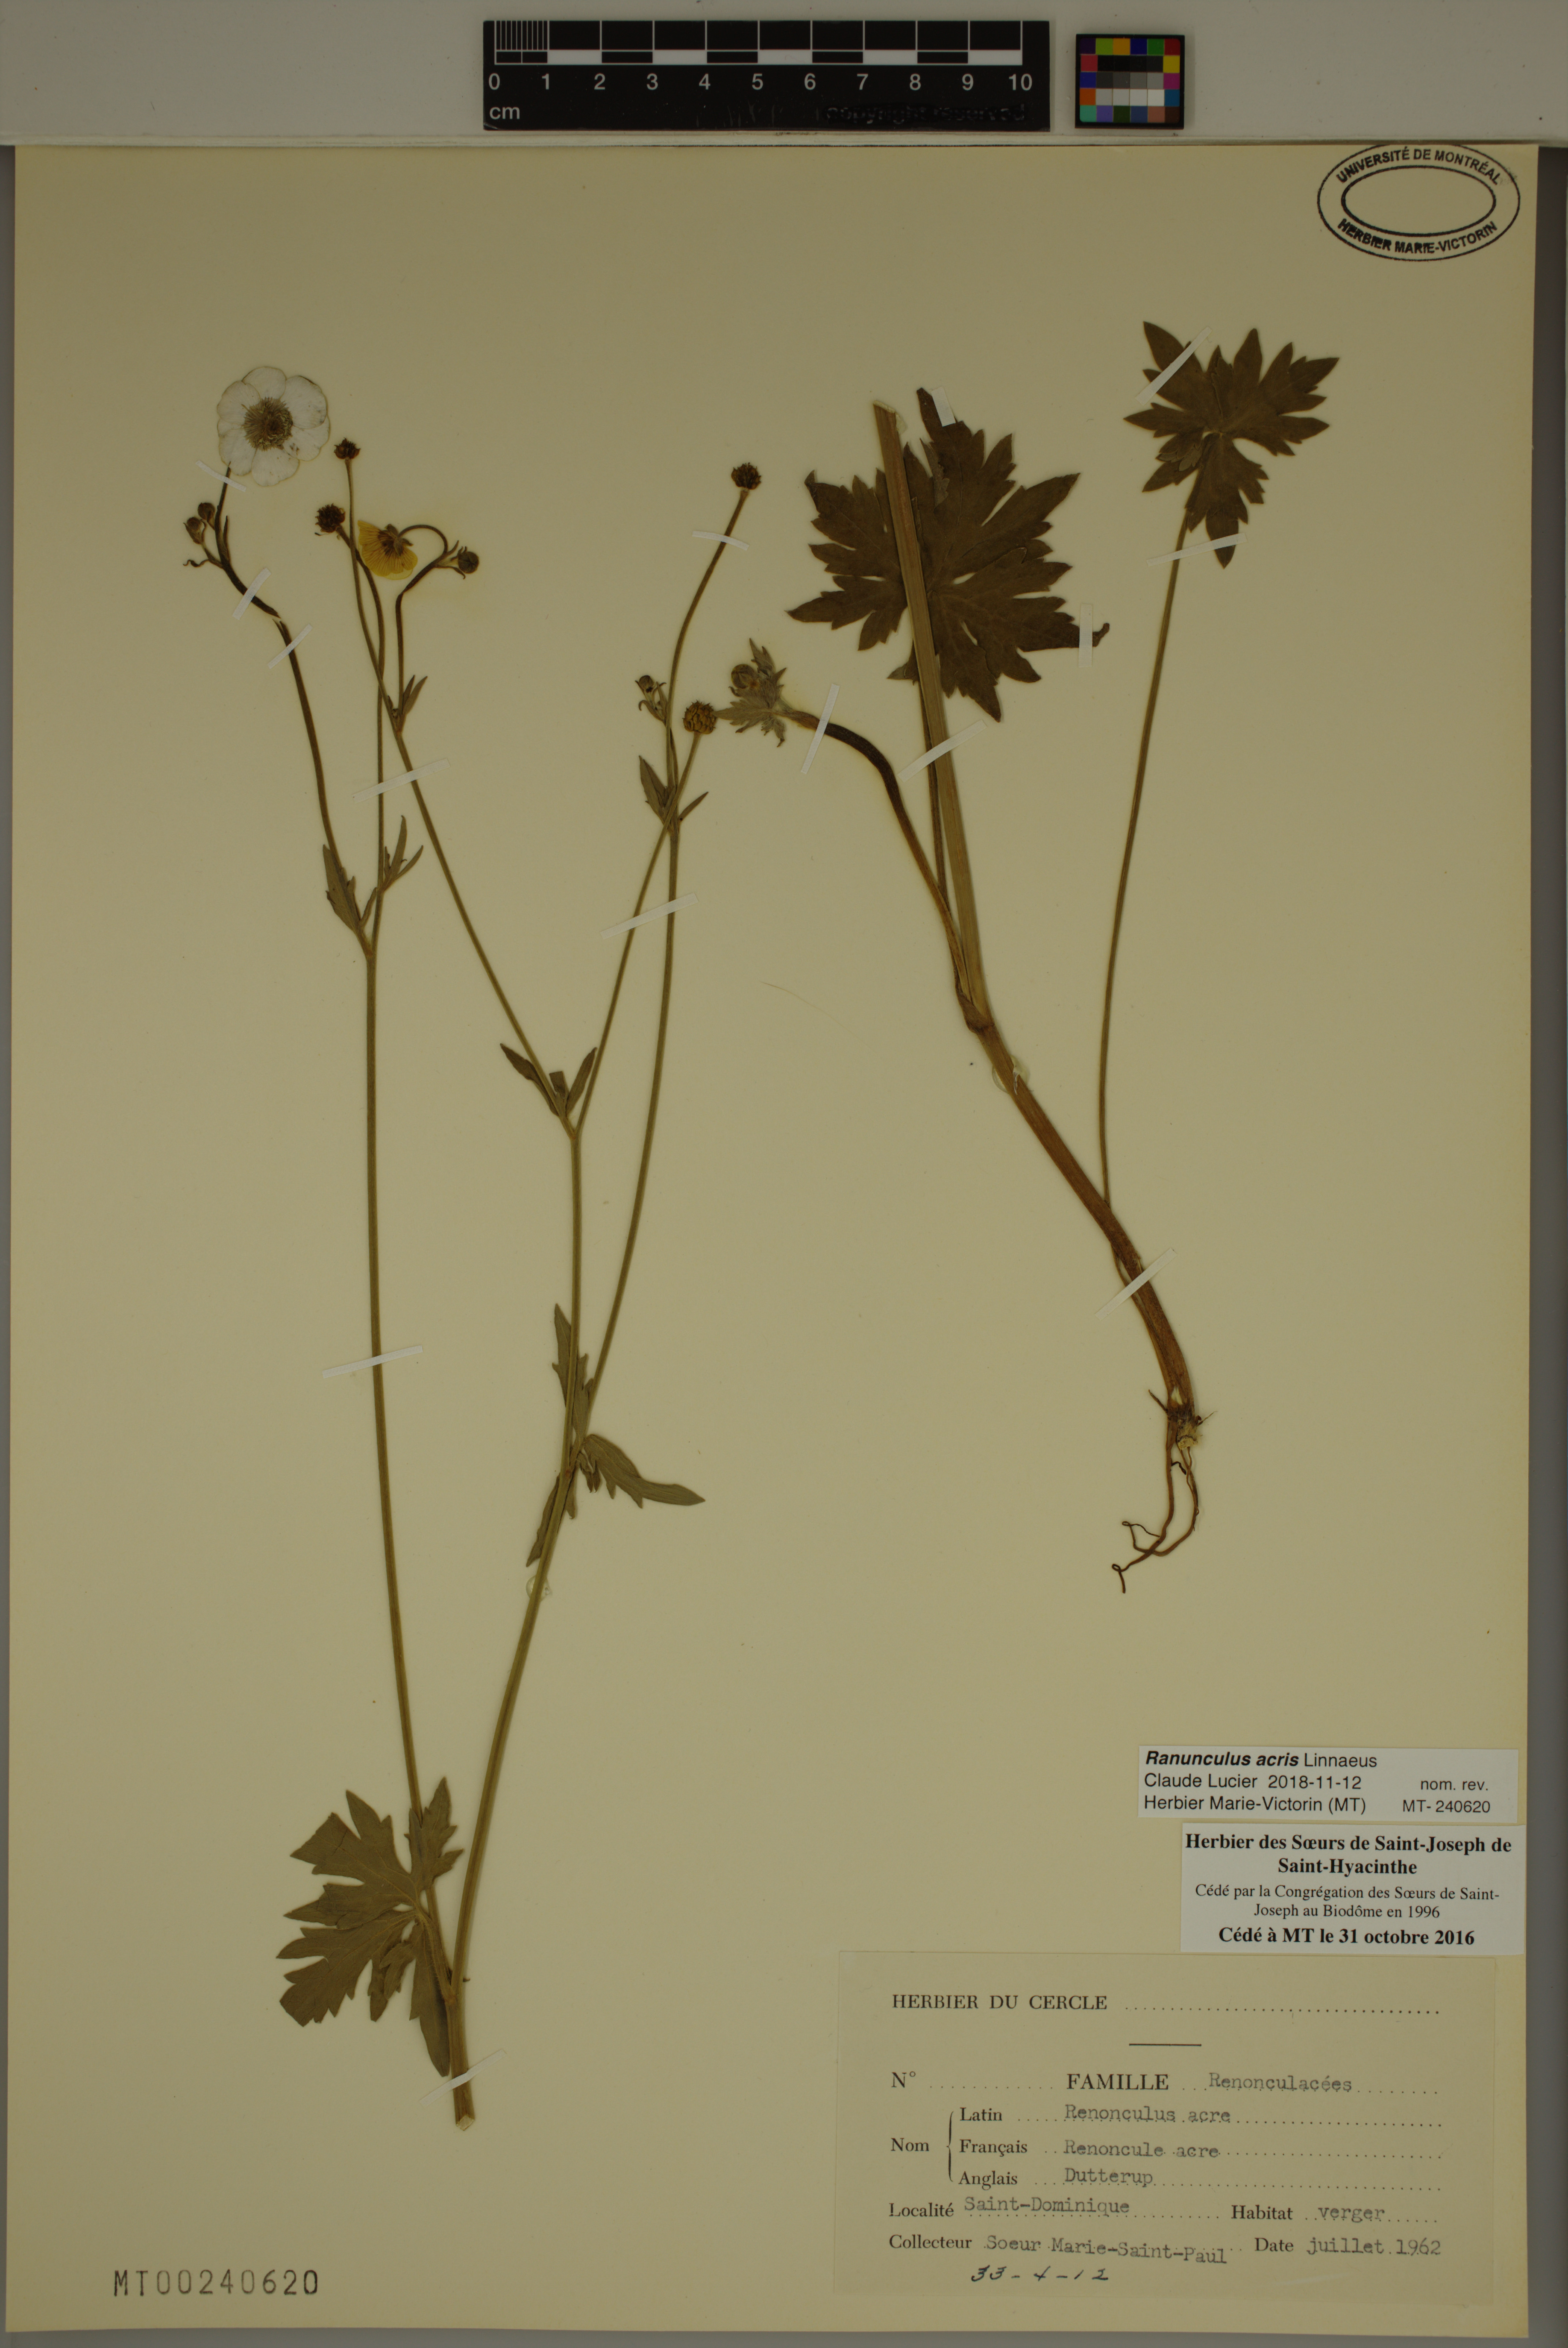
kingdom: Plantae
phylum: Tracheophyta
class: Magnoliopsida
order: Ranunculales
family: Ranunculaceae
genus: Ranunculus
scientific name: Ranunculus acris
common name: Meadow buttercup
